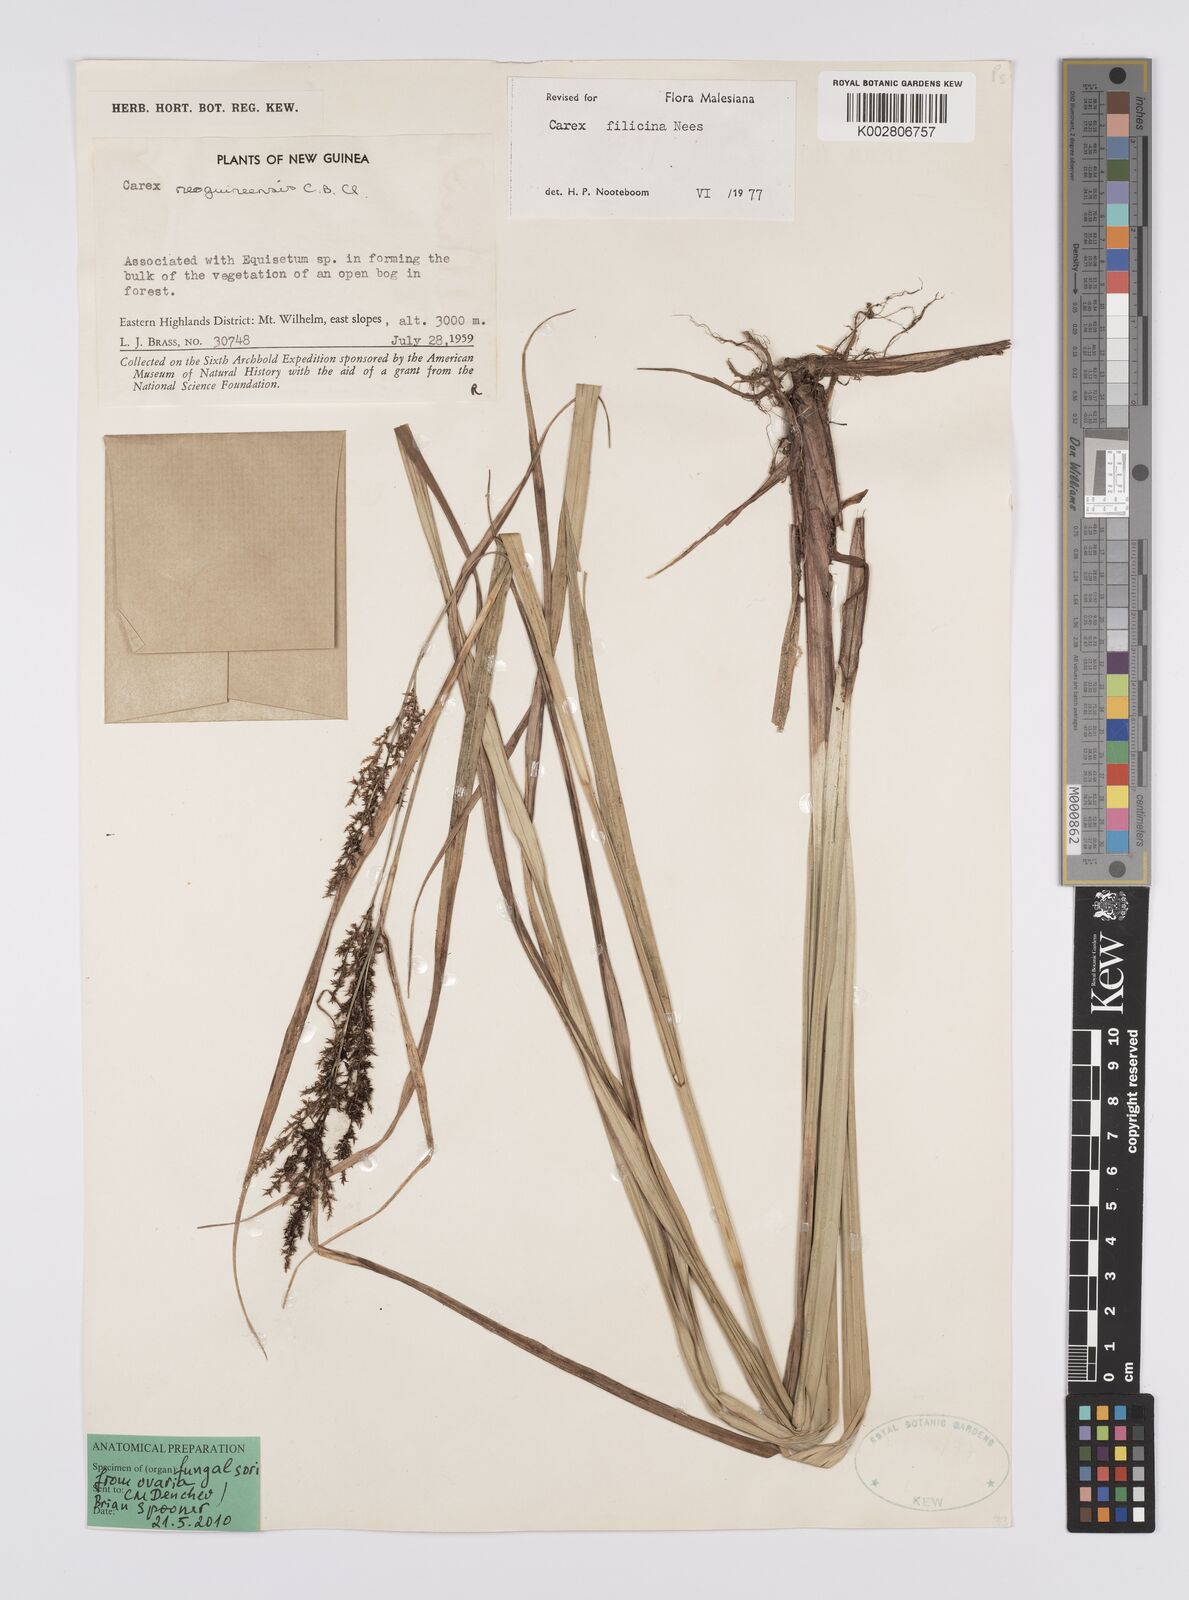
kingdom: Plantae
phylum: Tracheophyta
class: Liliopsida
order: Poales
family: Cyperaceae
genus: Carex
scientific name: Carex filicina
